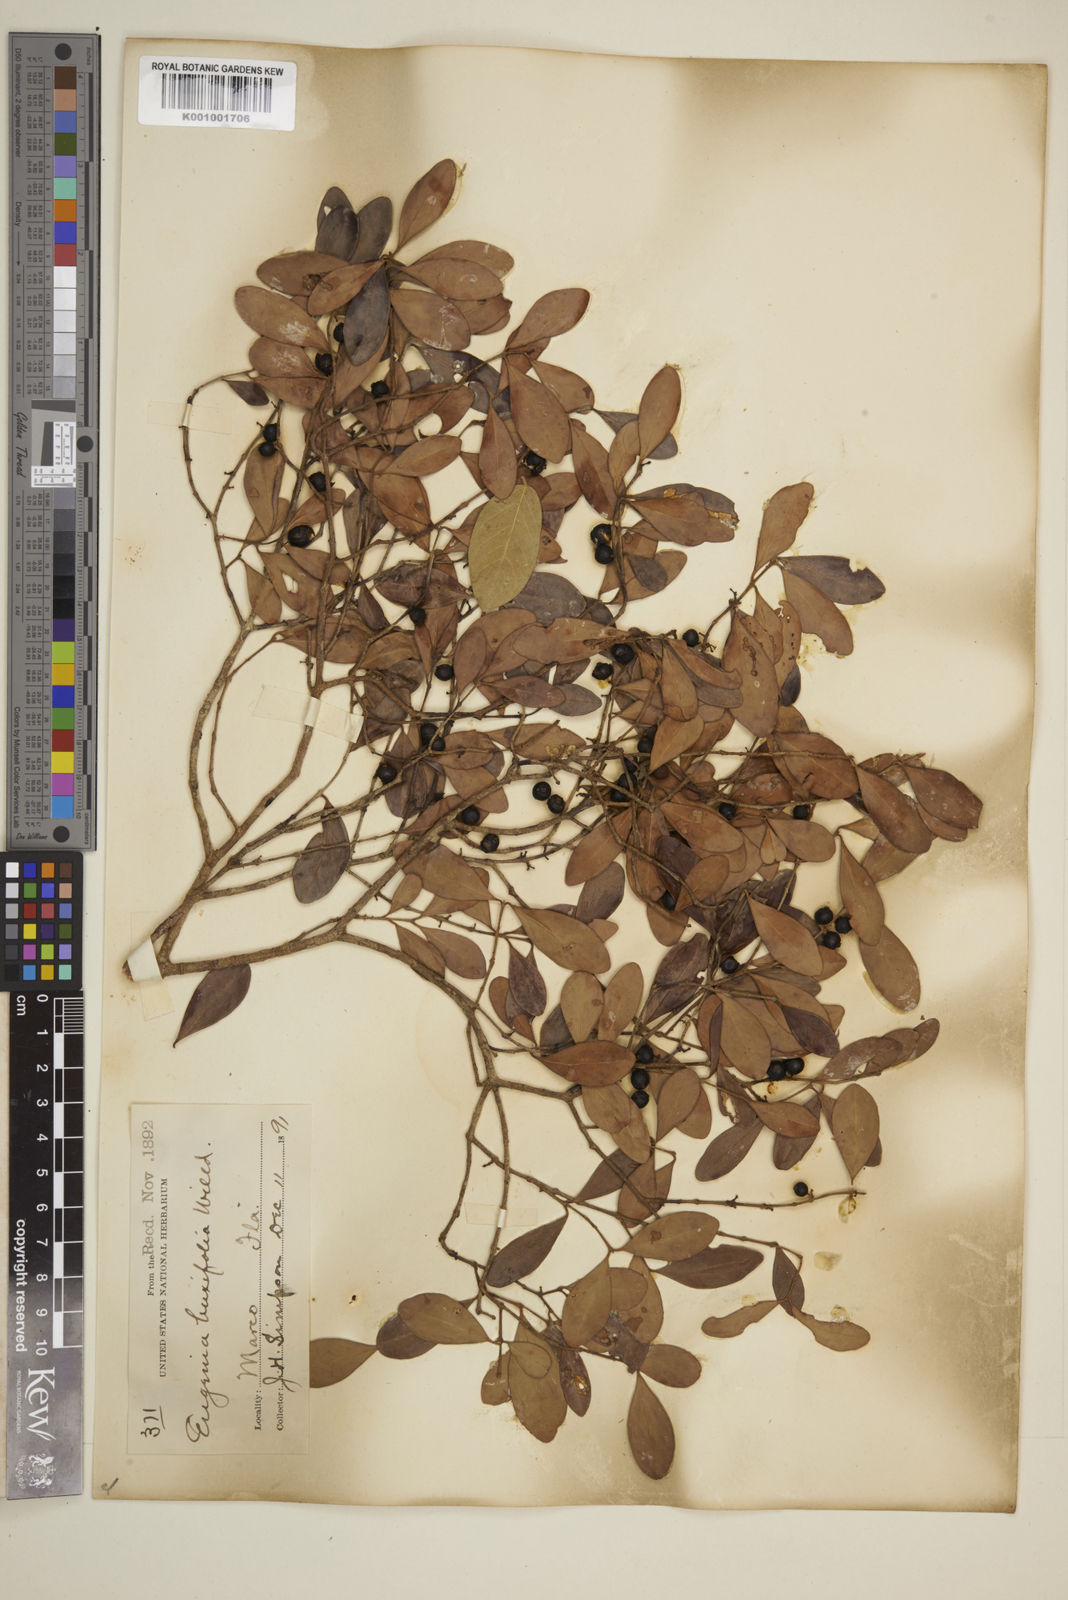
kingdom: Plantae
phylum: Tracheophyta
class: Magnoliopsida
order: Myrtales
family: Myrtaceae
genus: Eugenia
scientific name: Eugenia buxifolia
